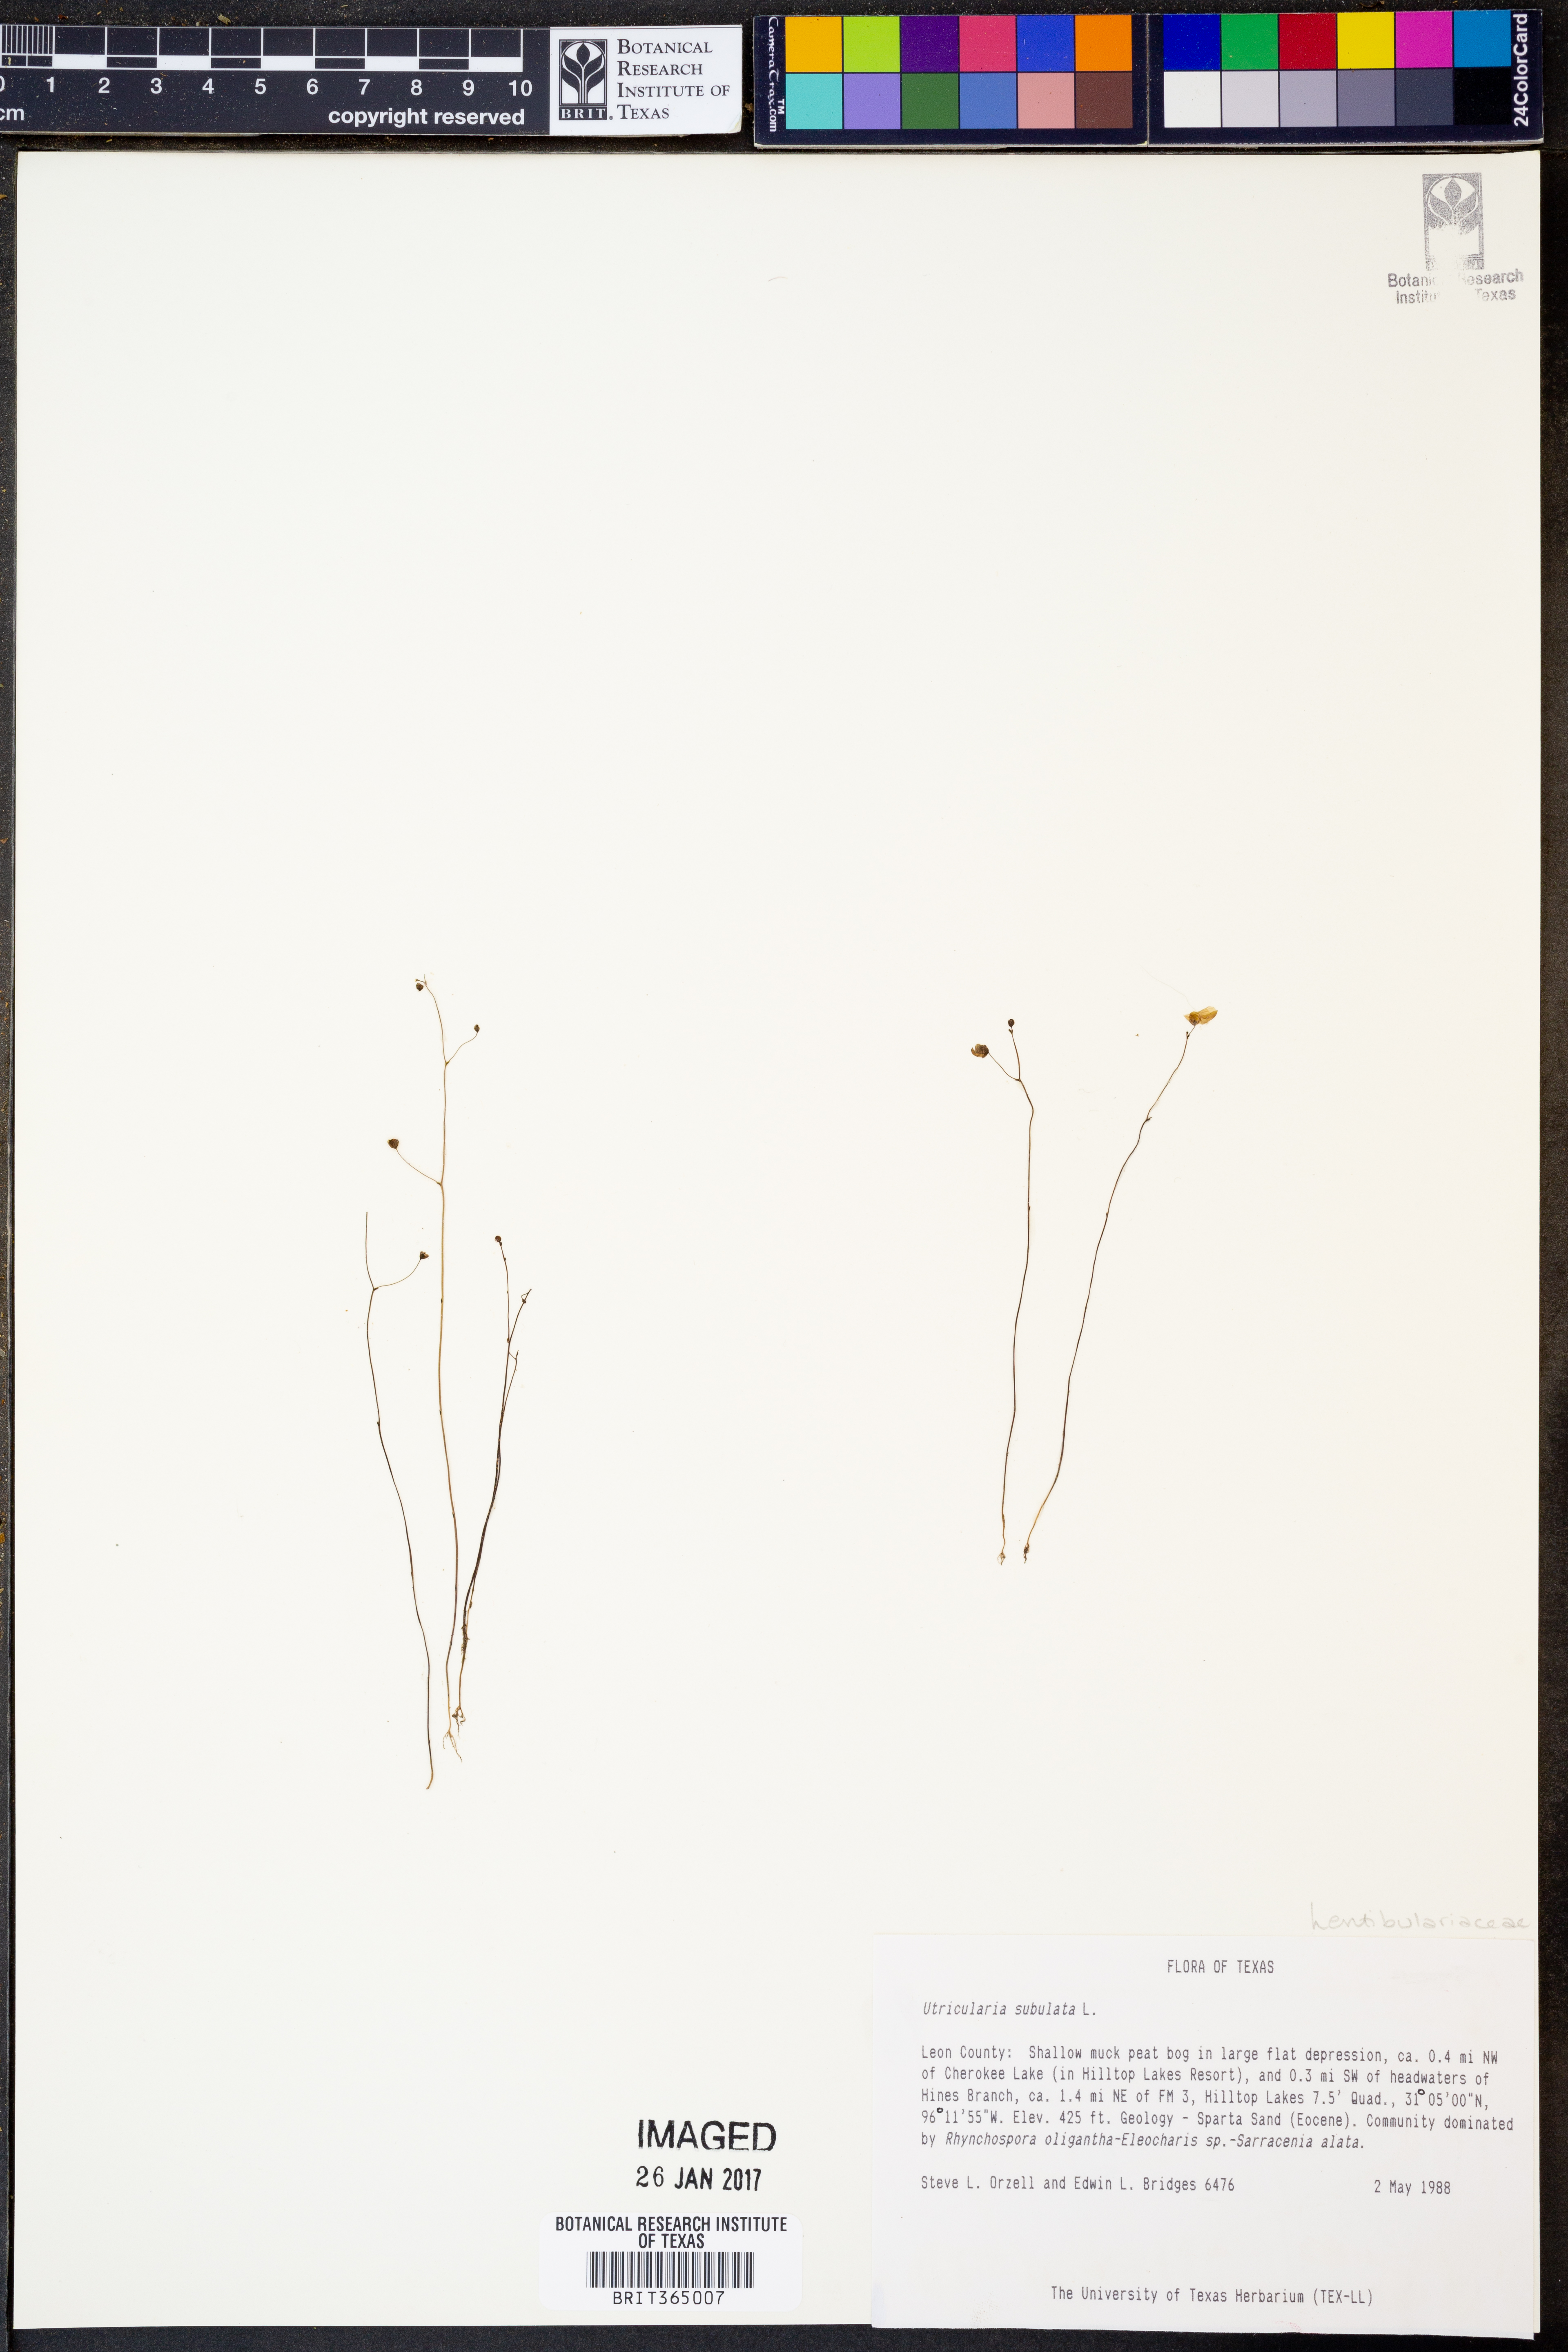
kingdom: Plantae
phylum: Tracheophyta
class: Magnoliopsida
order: Lamiales
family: Lentibulariaceae
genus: Utricularia
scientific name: Utricularia subulata
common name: Tiny bladderwort
